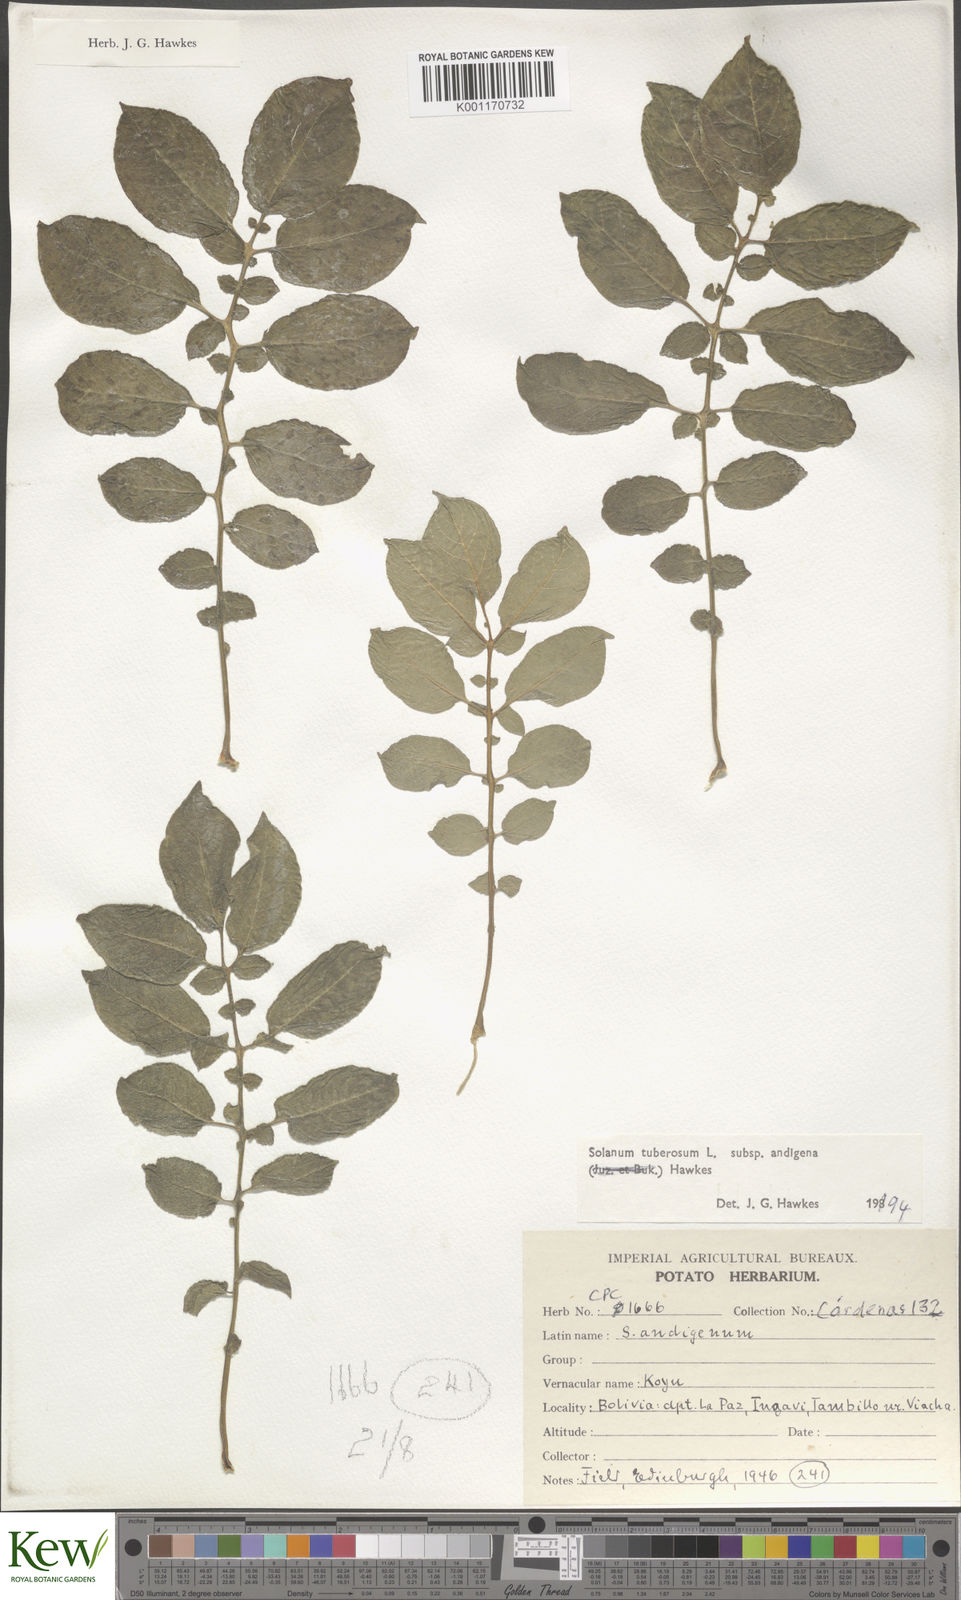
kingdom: Plantae
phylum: Tracheophyta
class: Magnoliopsida
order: Solanales
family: Solanaceae
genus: Solanum
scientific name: Solanum tuberosum
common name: Potato
